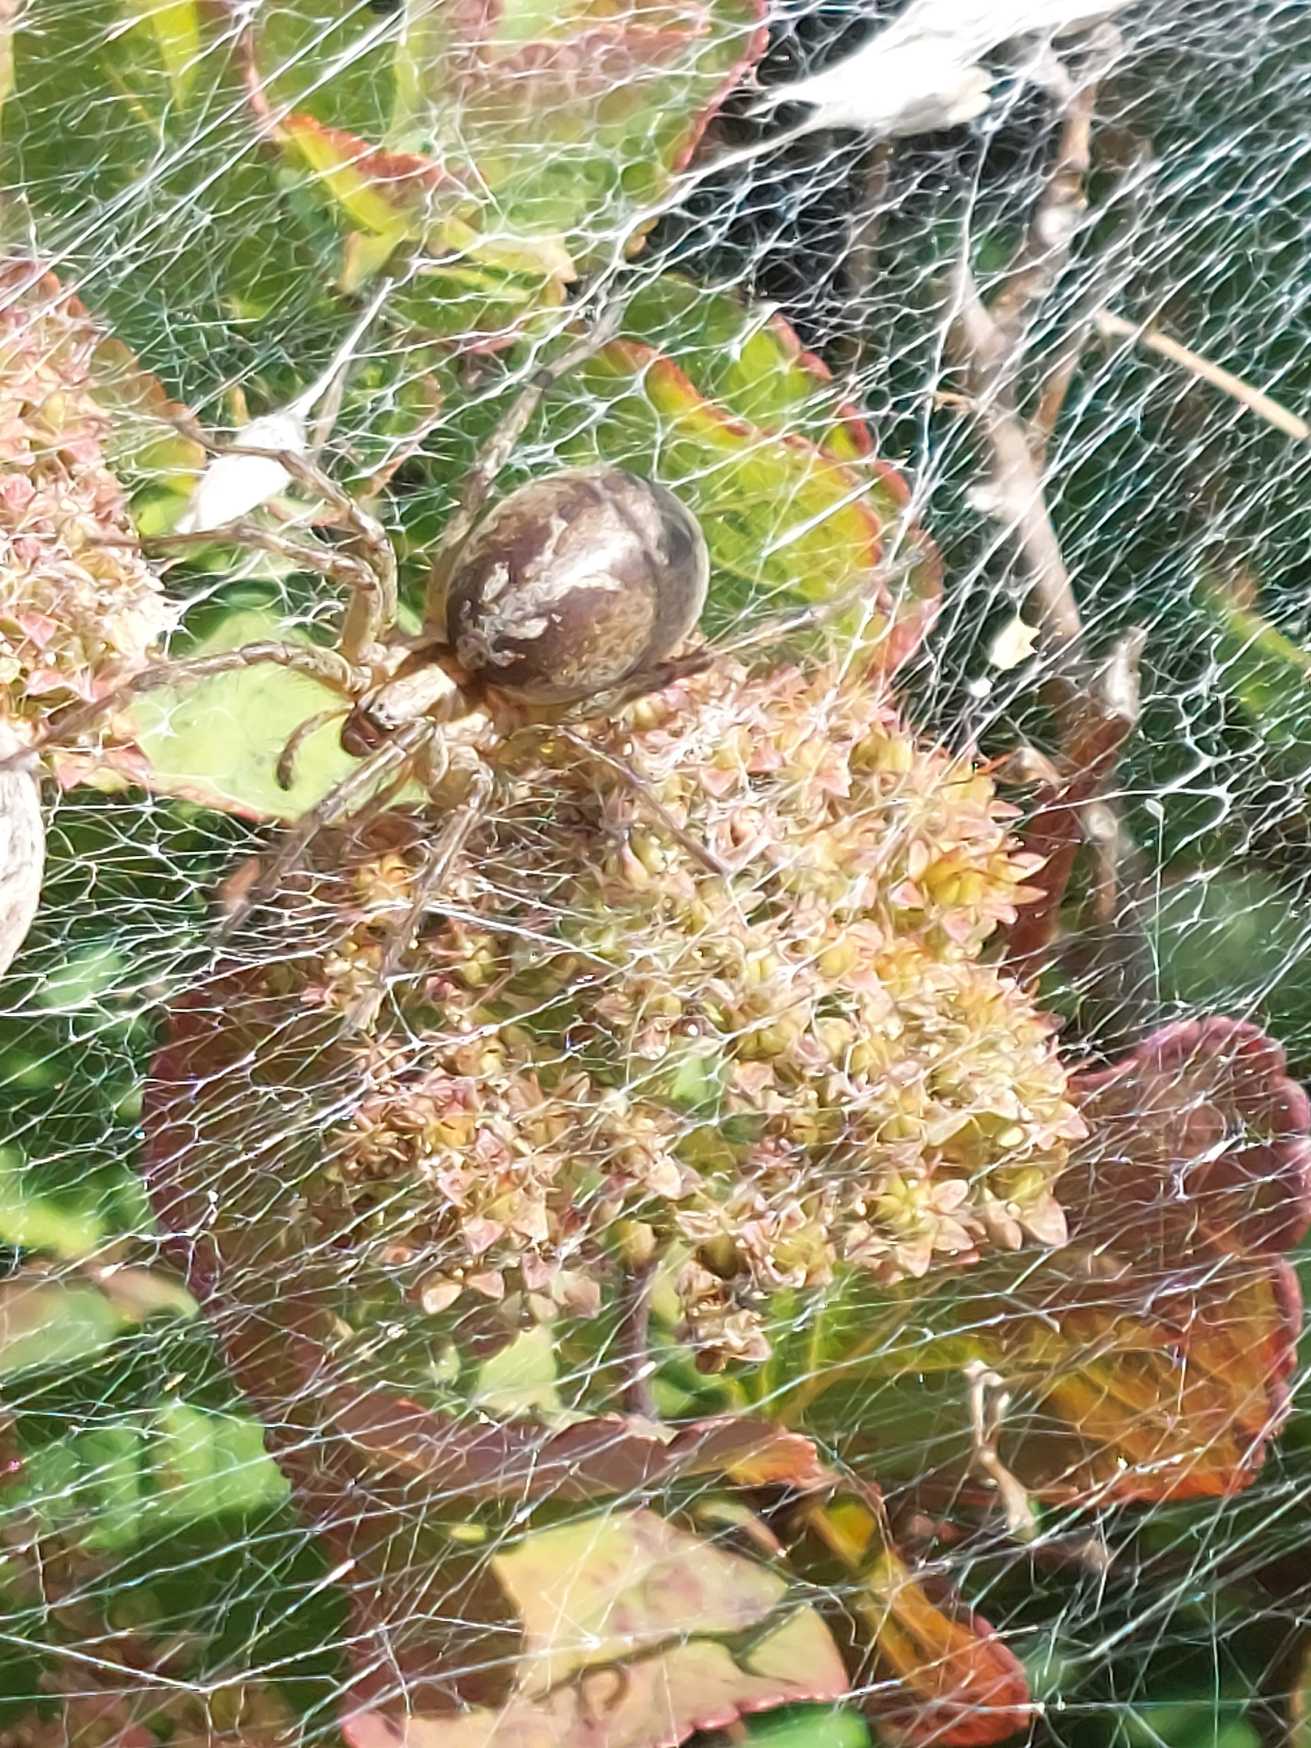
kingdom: Animalia
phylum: Arthropoda
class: Arachnida
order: Araneae
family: Agelenidae
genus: Agelena
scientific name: Agelena labyrinthica
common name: Labyrintedderkop
